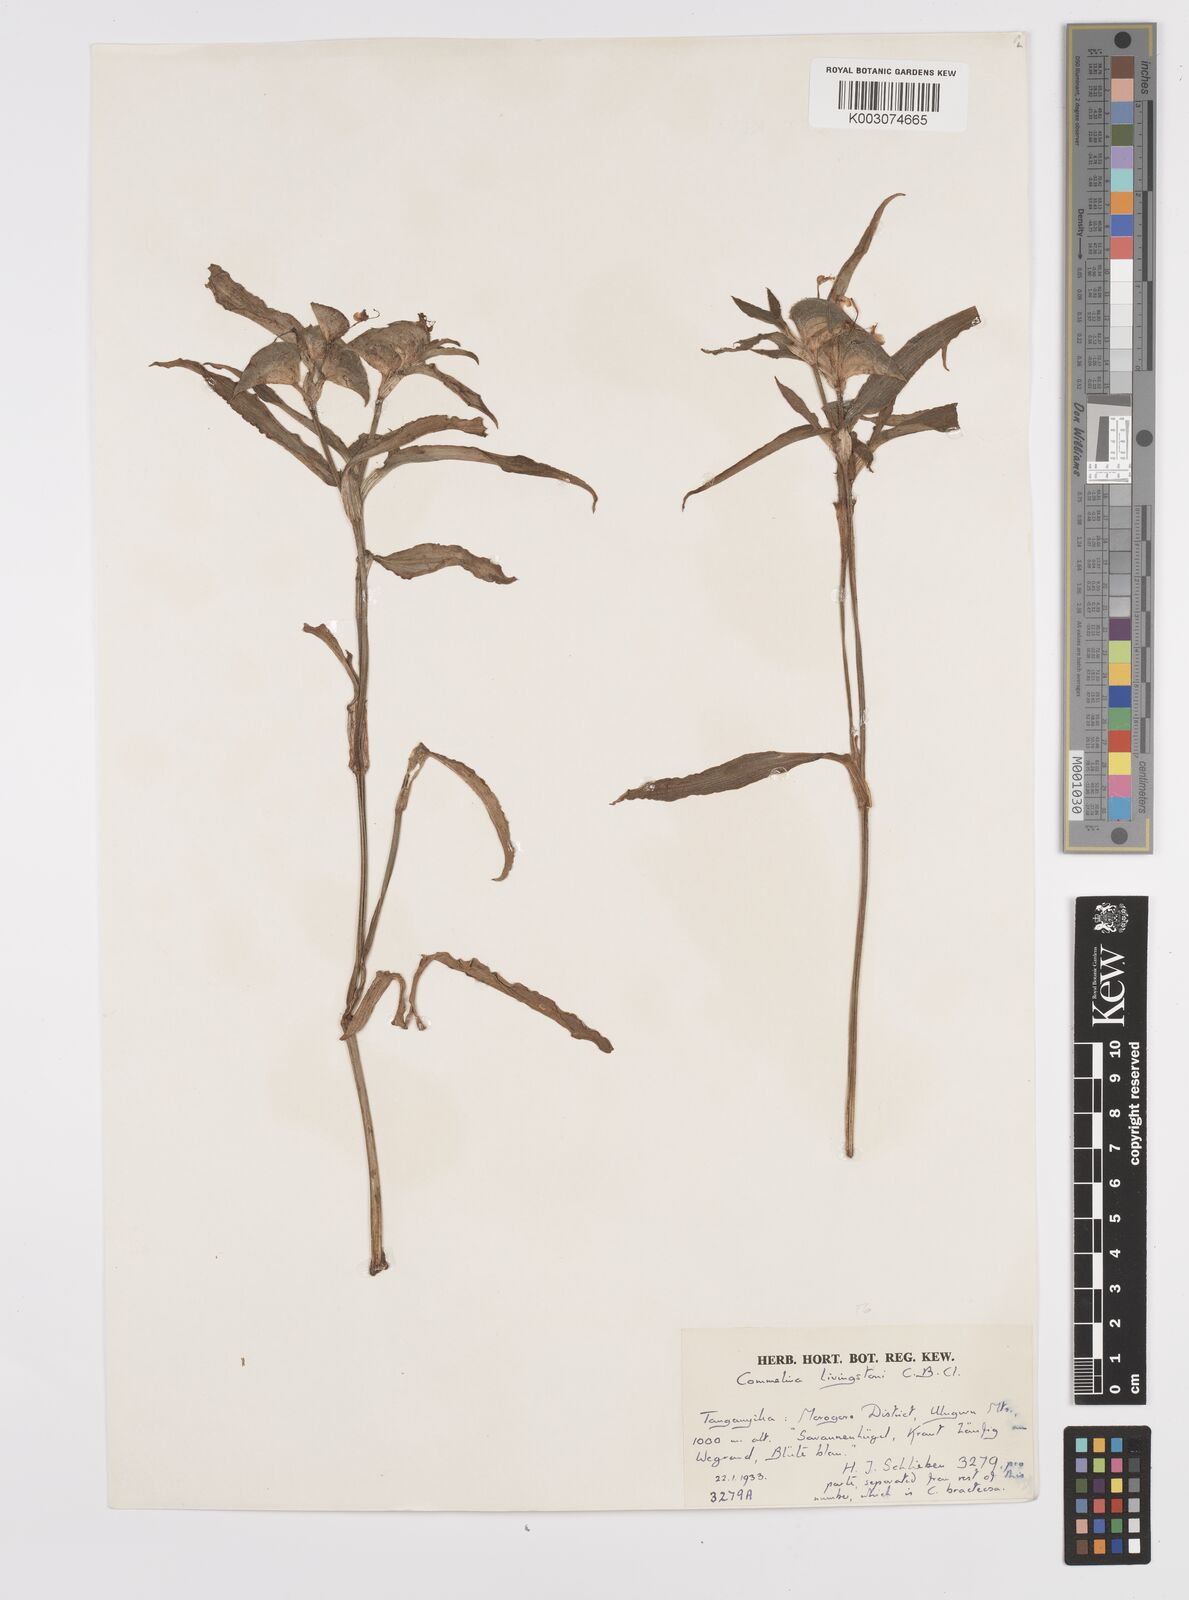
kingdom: Plantae
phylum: Tracheophyta
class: Liliopsida
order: Commelinales
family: Commelinaceae
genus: Commelina
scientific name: Commelina erecta
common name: Blousel blommetjie
